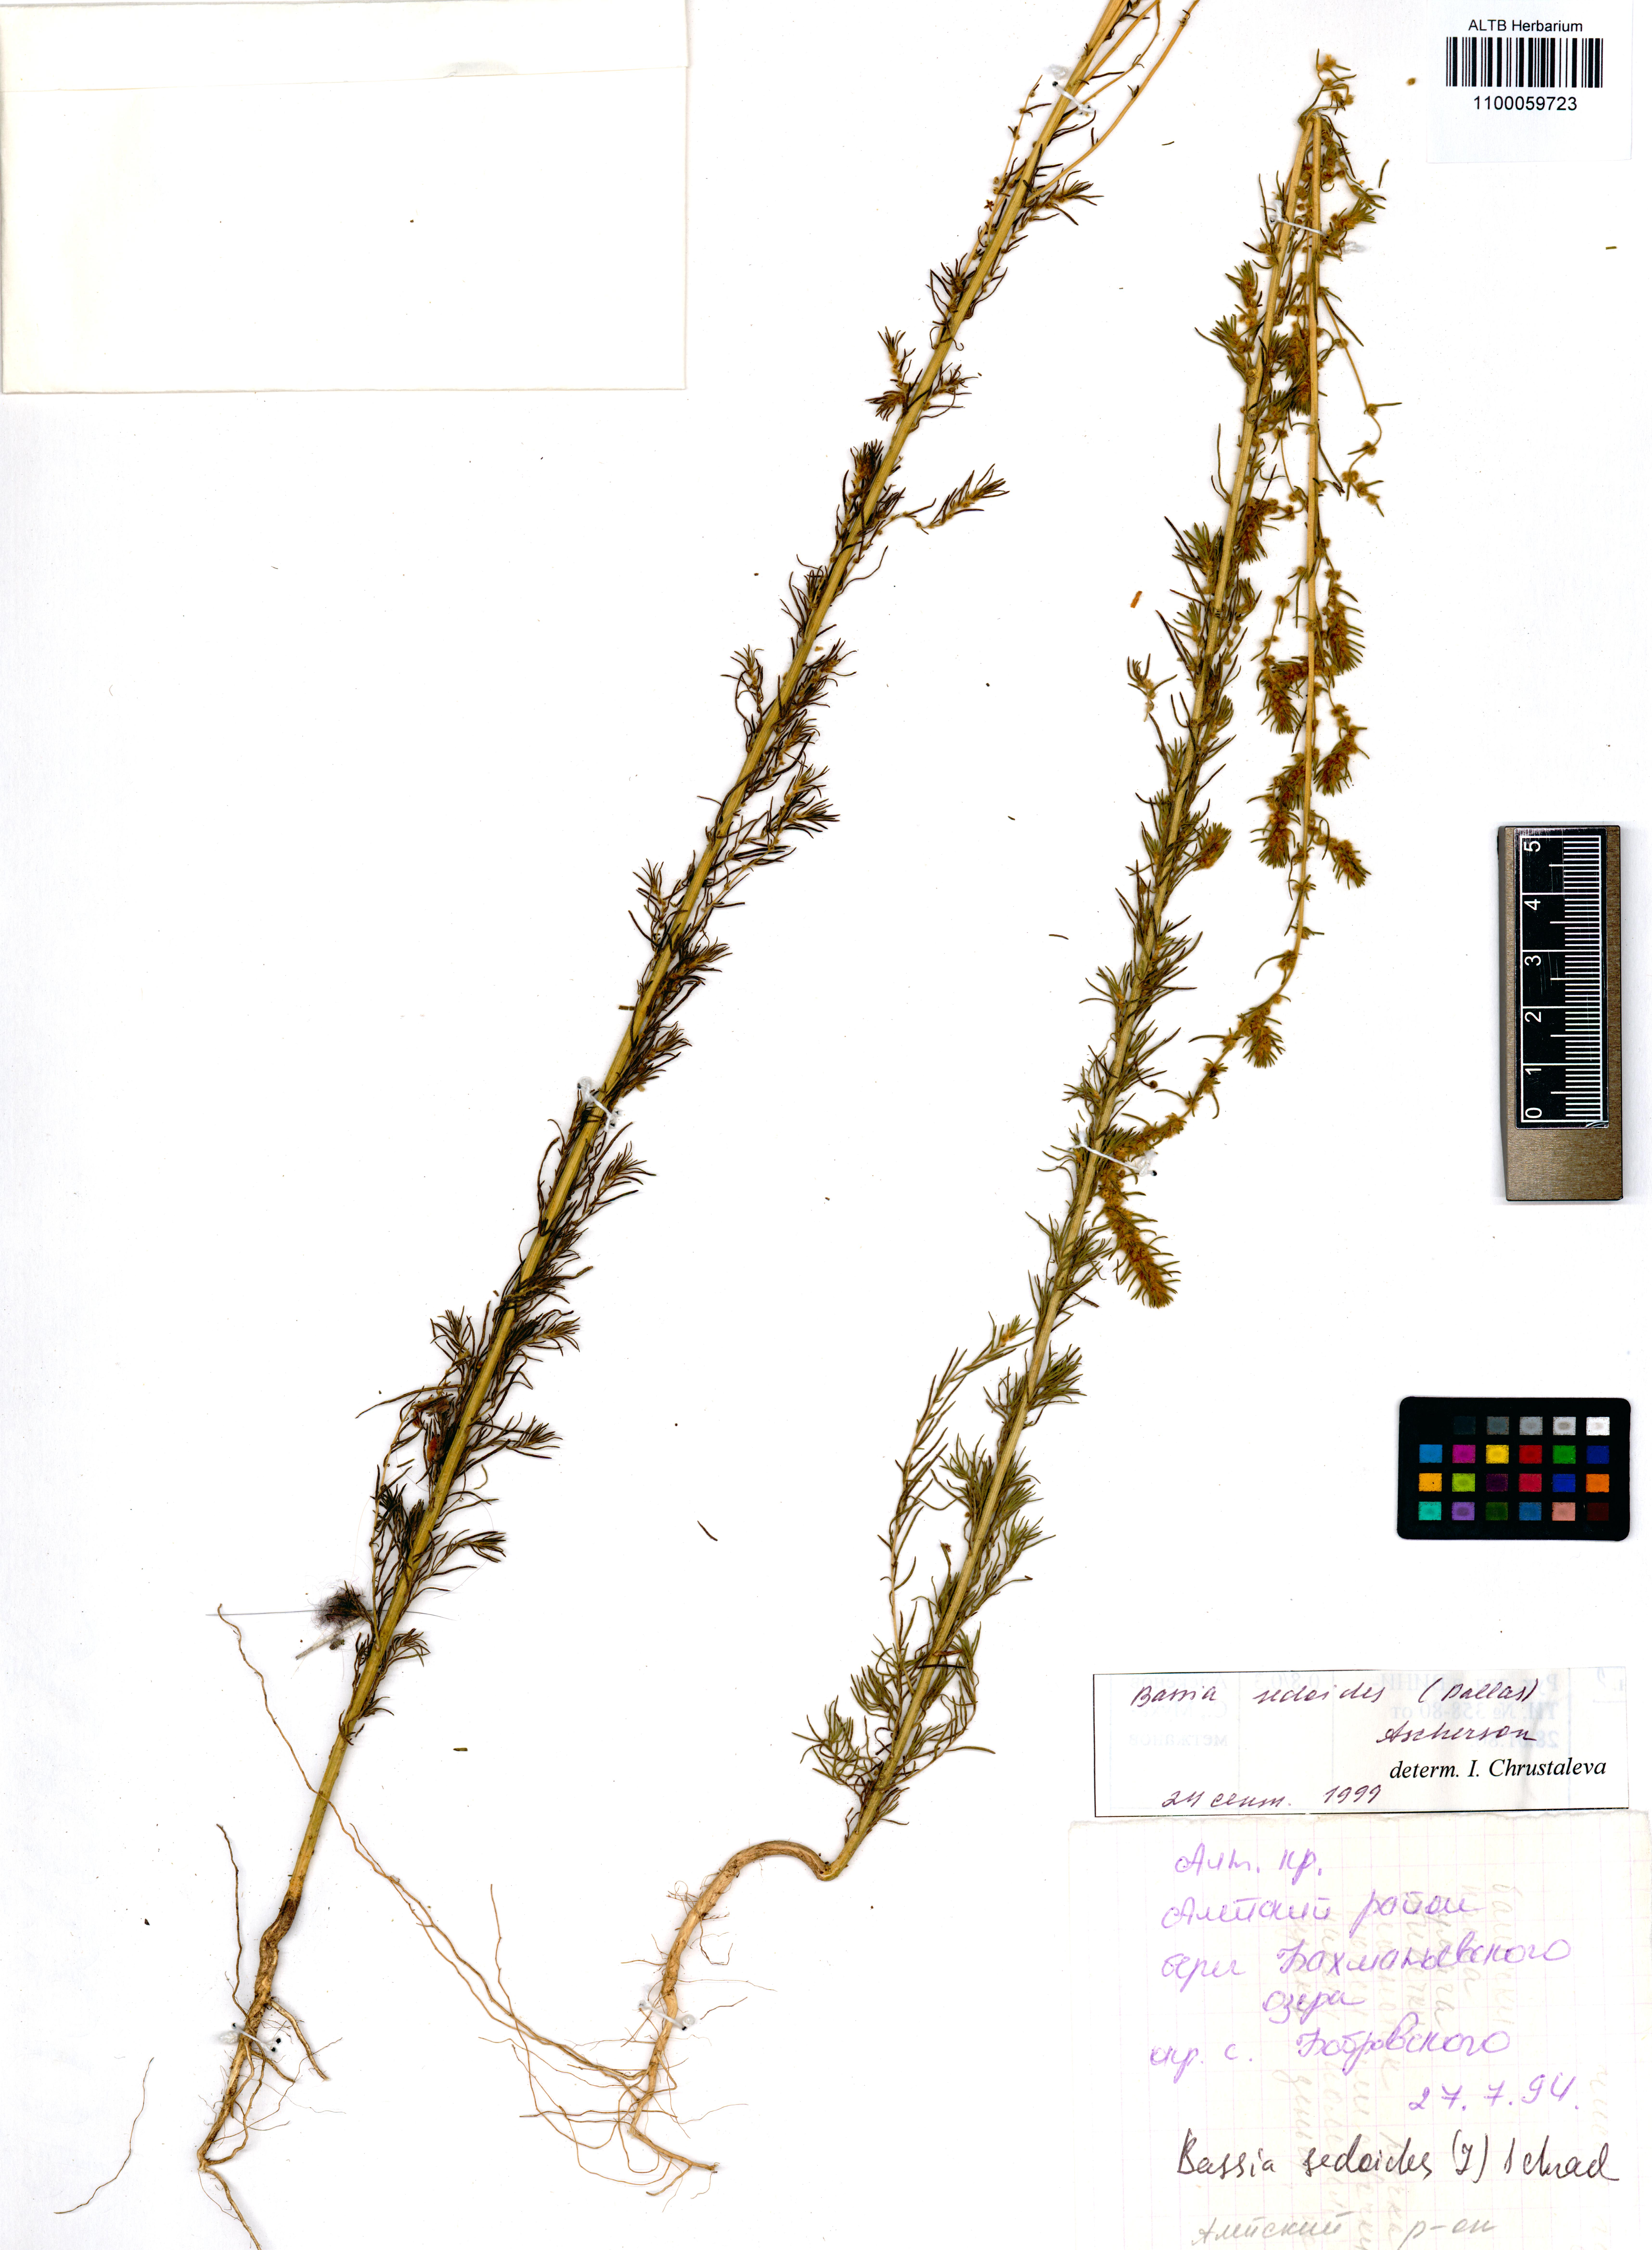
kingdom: Plantae
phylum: Tracheophyta
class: Magnoliopsida
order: Caryophyllales
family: Amaranthaceae
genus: Sedobassia
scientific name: Sedobassia sedoides
